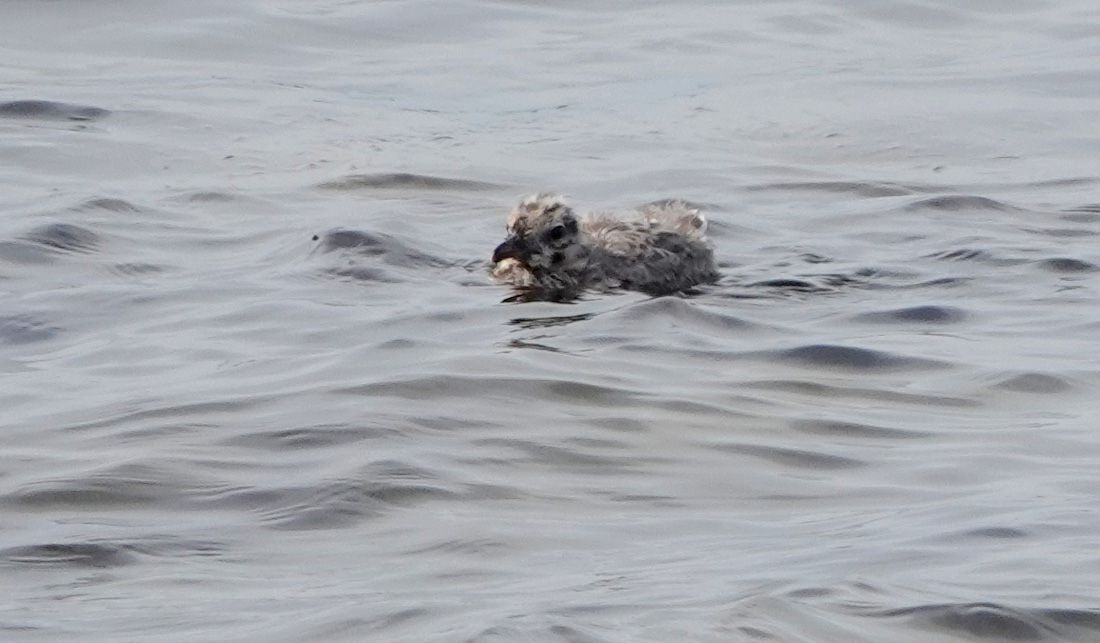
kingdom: Animalia
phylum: Chordata
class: Aves
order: Charadriiformes
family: Laridae
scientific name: Laridae
